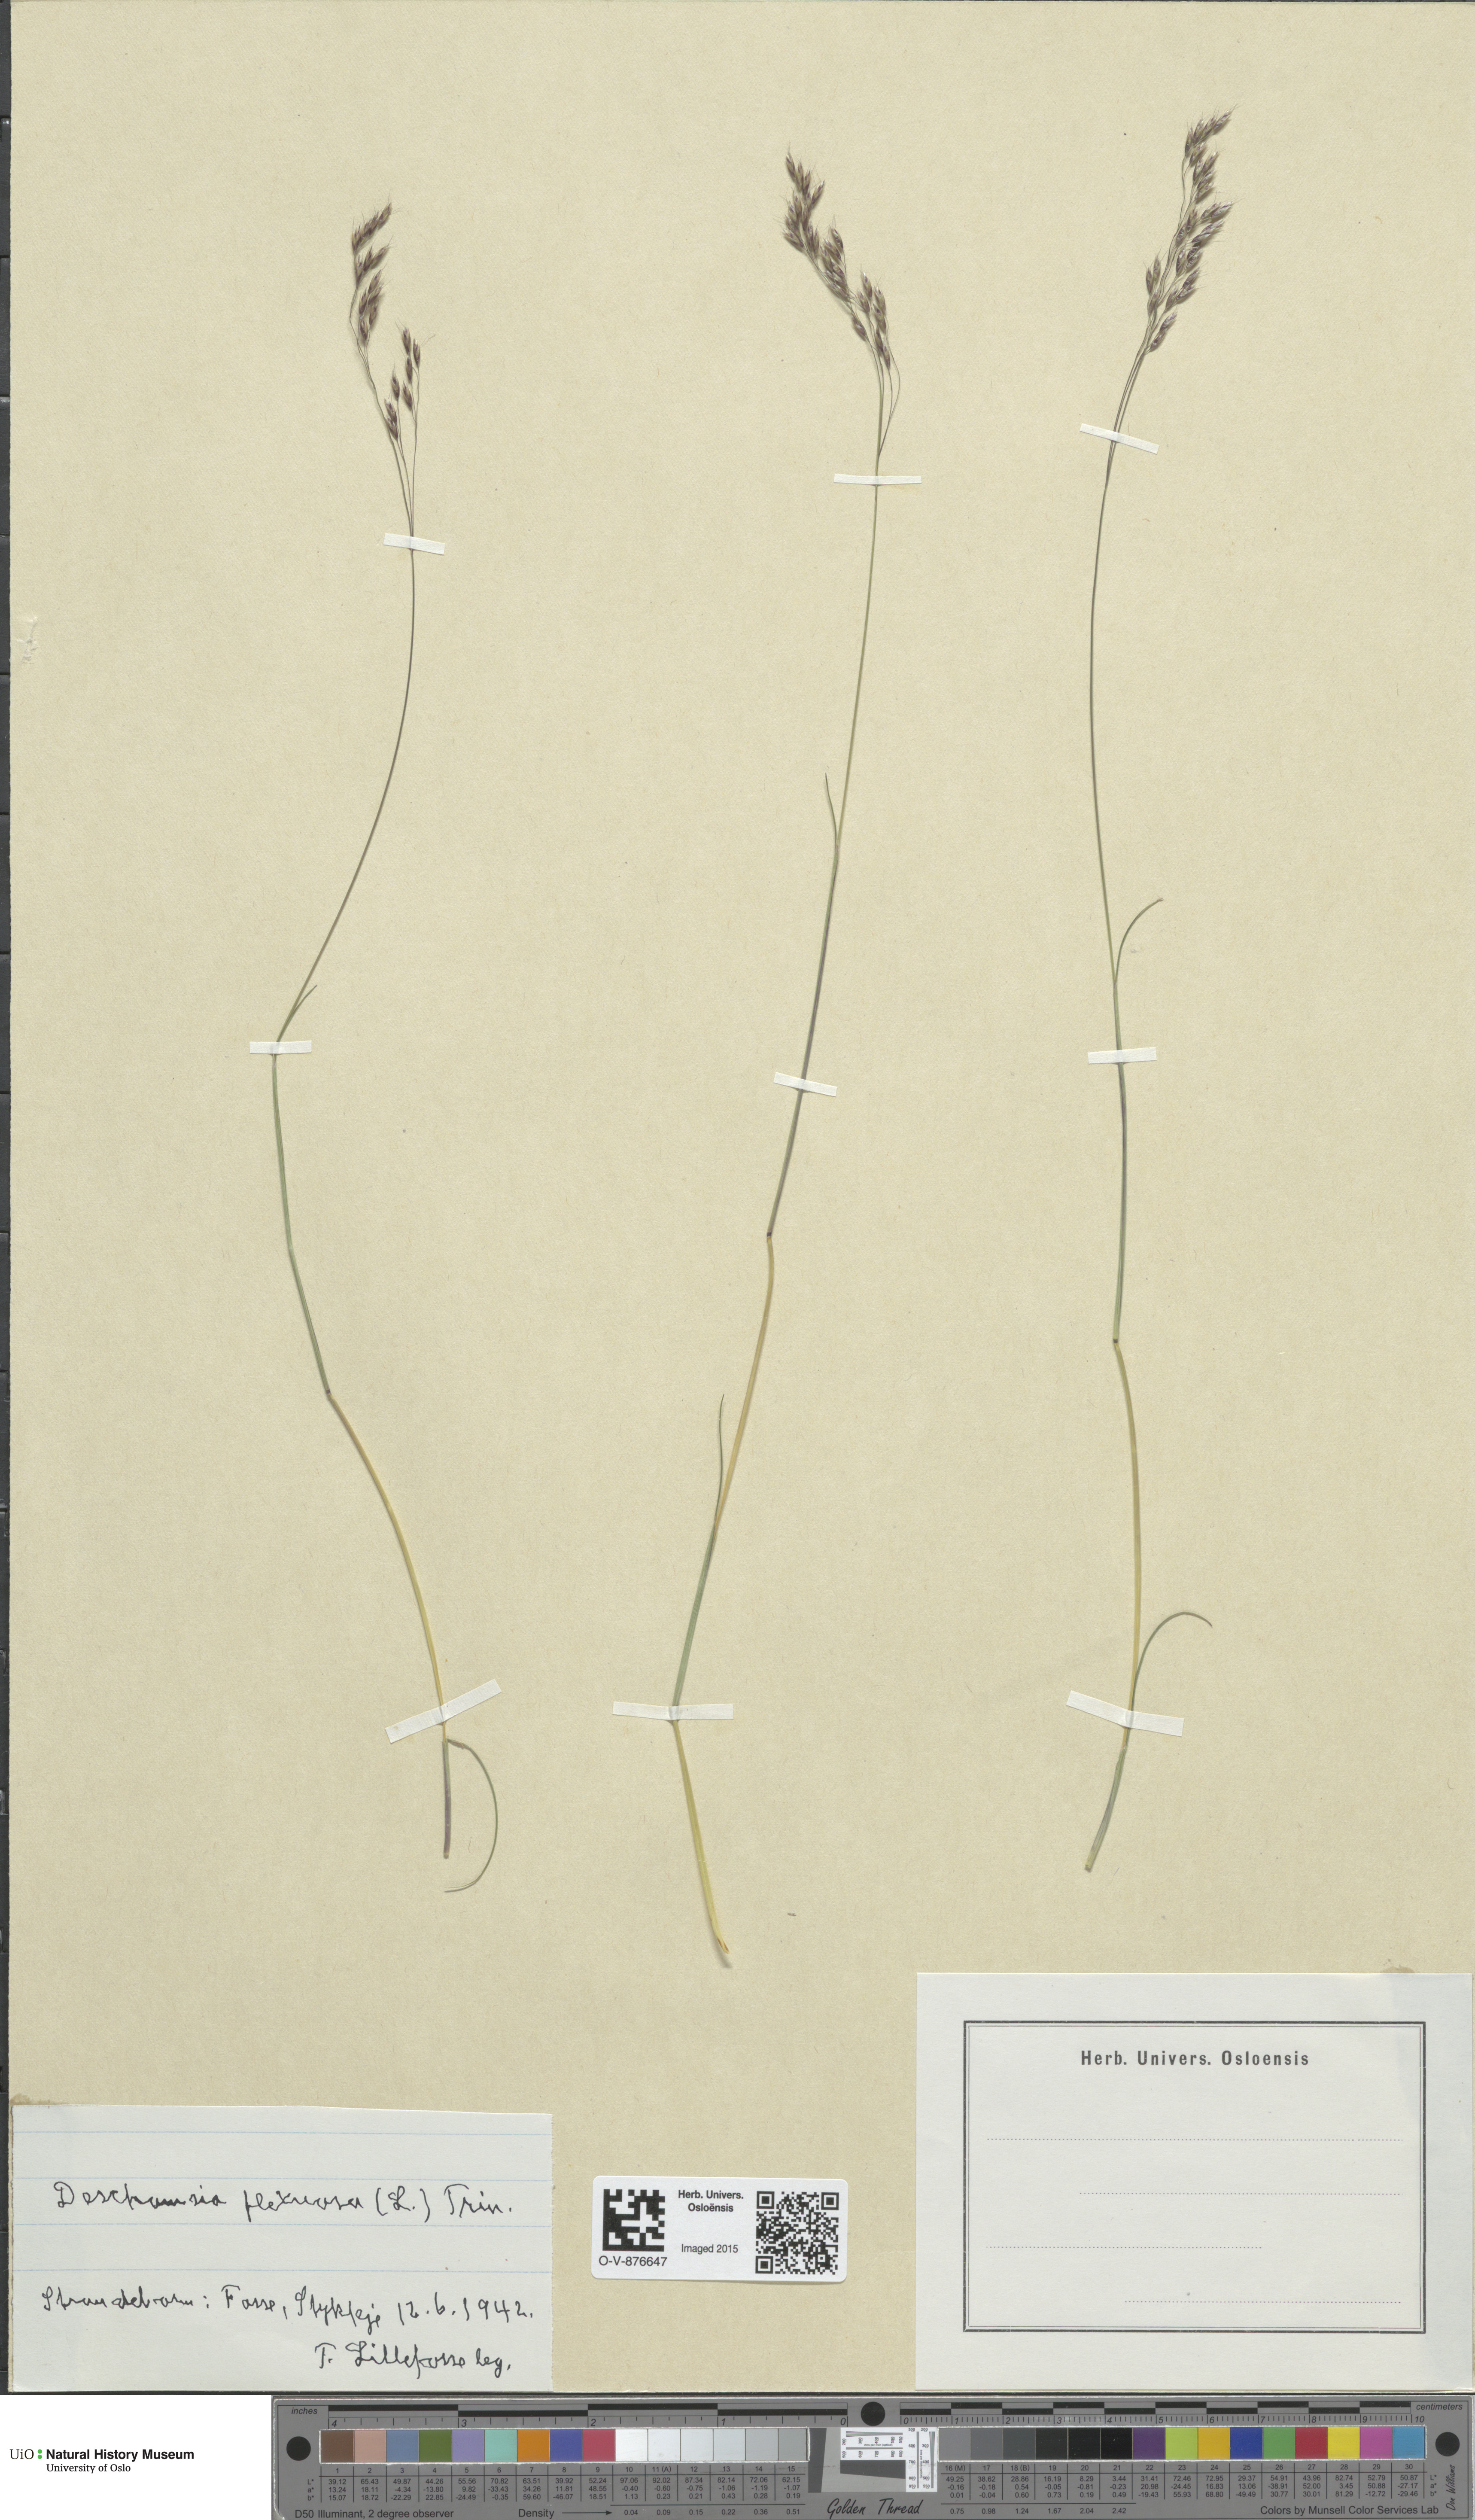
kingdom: Plantae
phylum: Tracheophyta
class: Liliopsida
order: Poales
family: Poaceae
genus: Avenella
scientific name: Avenella flexuosa
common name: Wavy hairgrass
